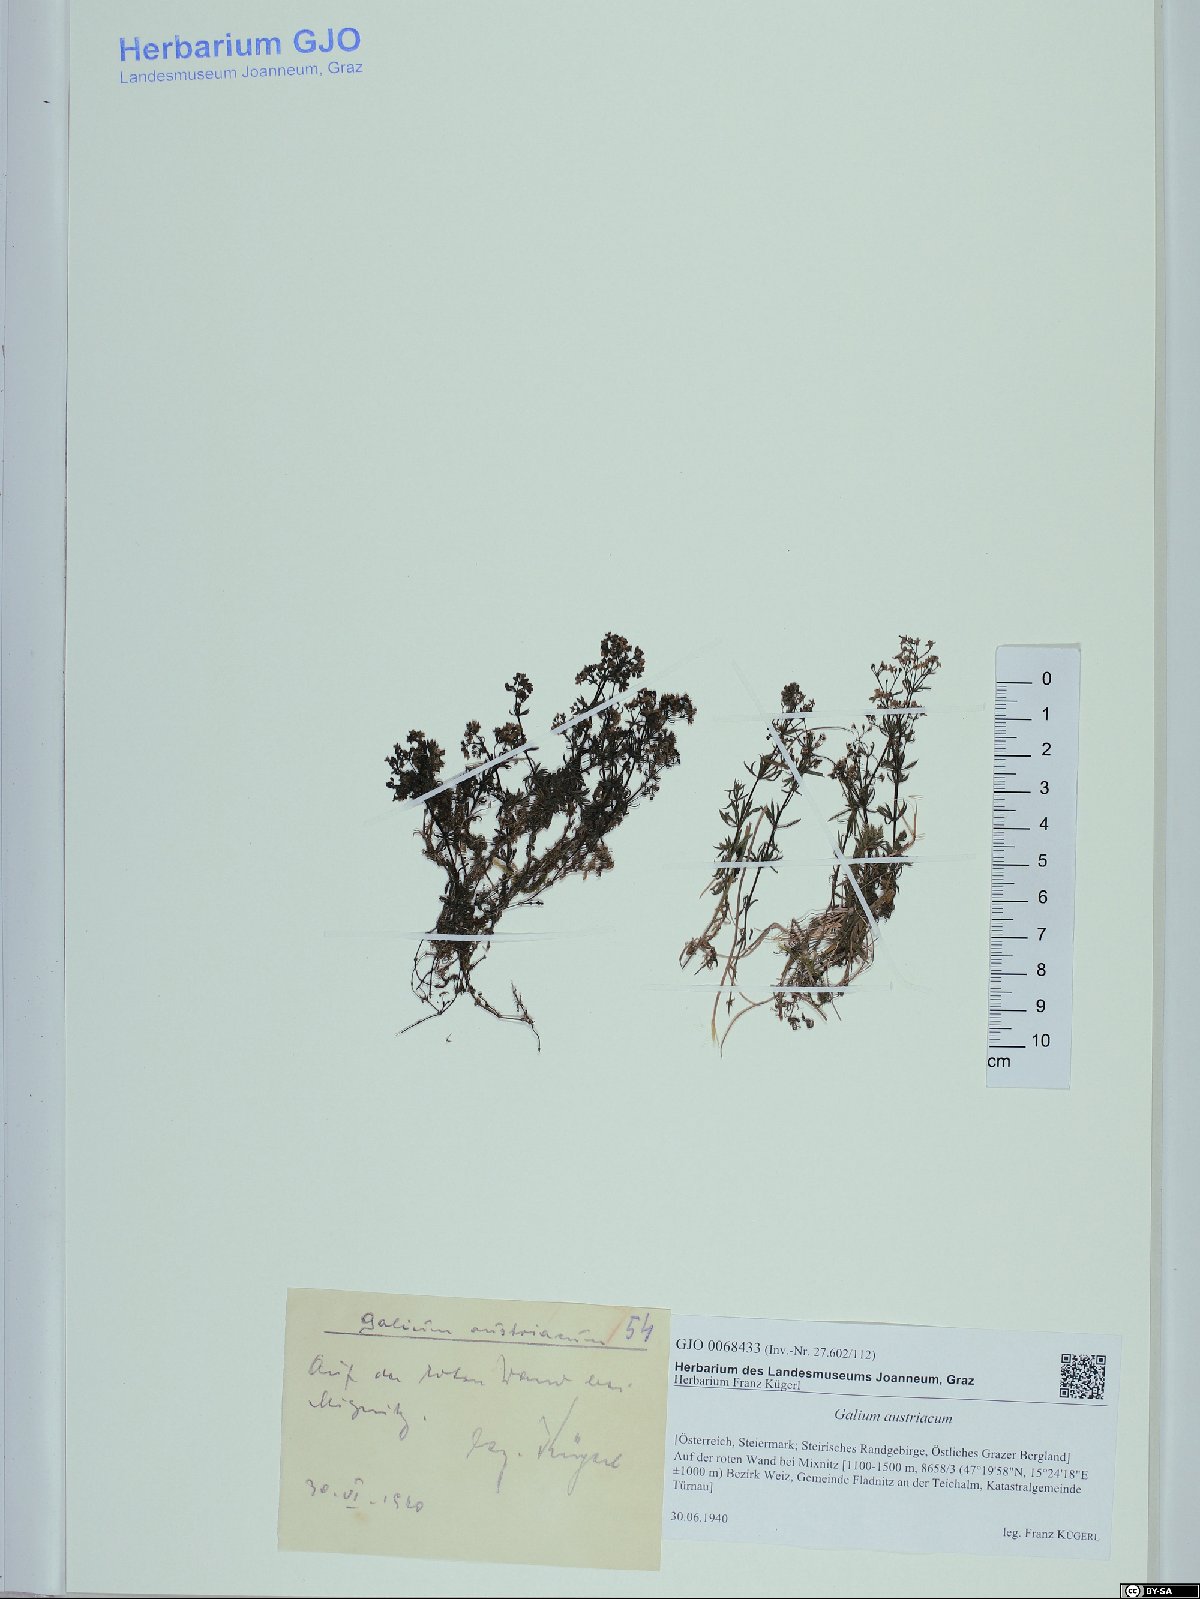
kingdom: Plantae
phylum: Tracheophyta
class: Magnoliopsida
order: Gentianales
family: Rubiaceae
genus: Galium
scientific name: Galium austriacum
